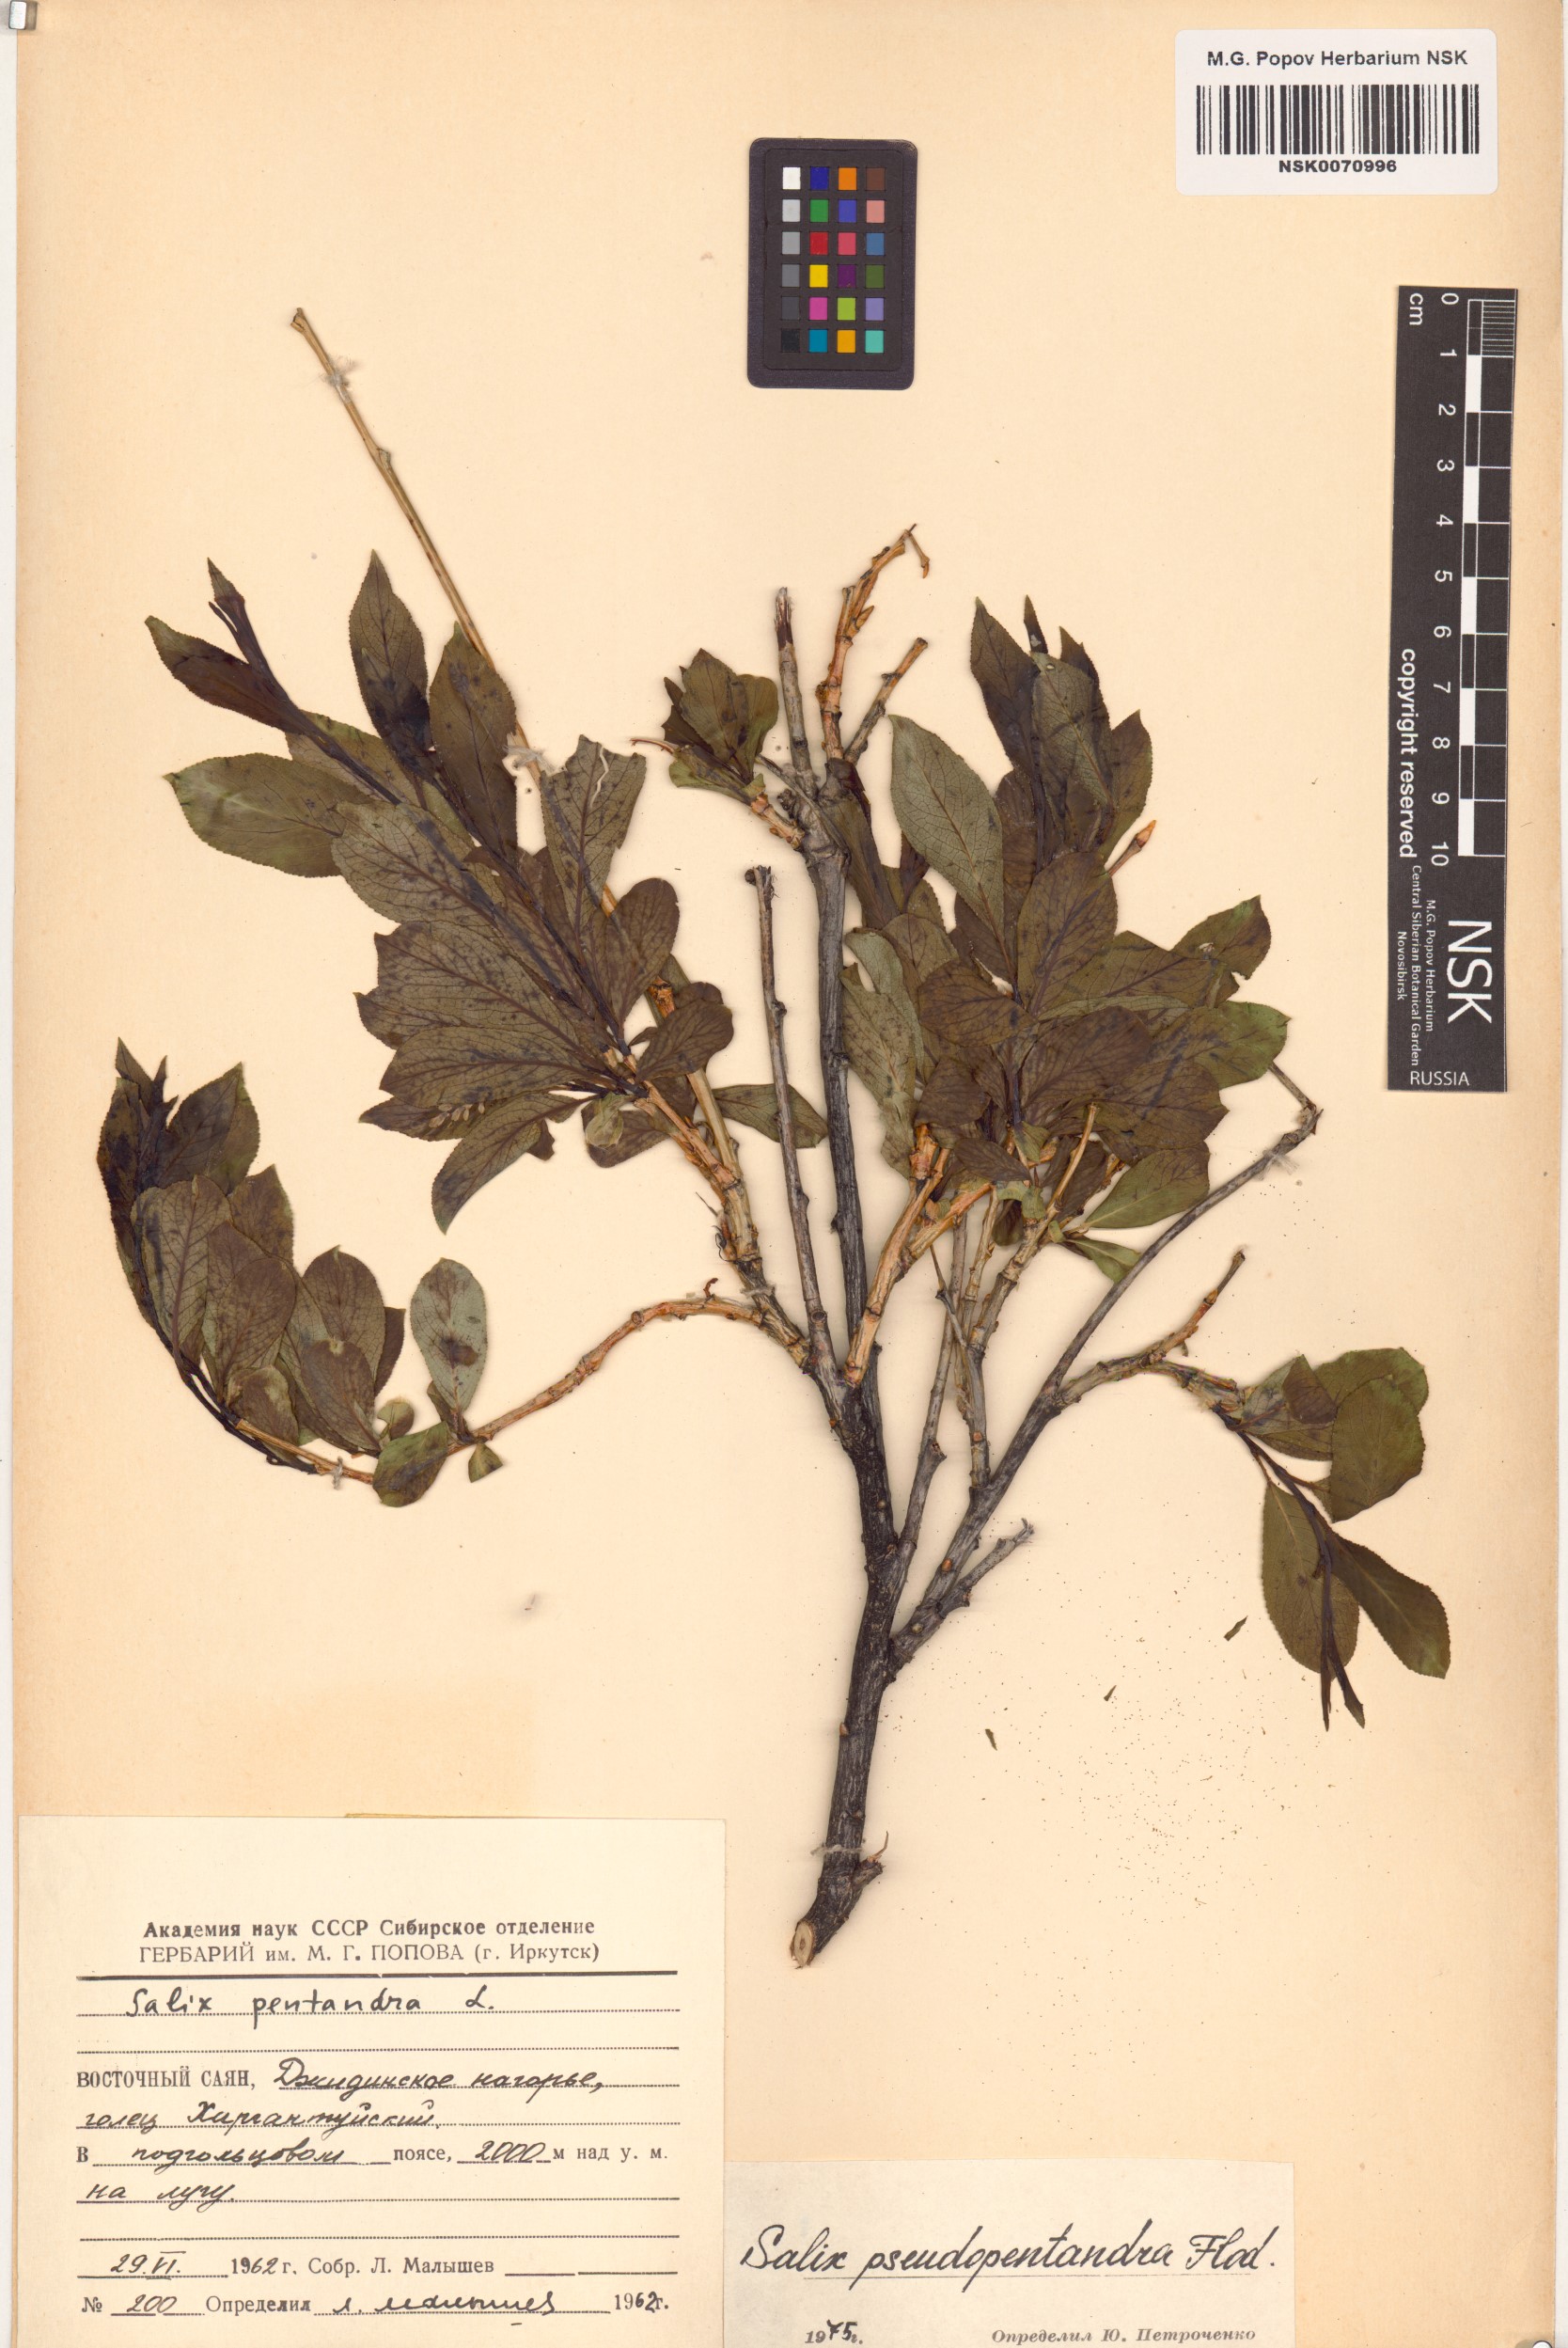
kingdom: Plantae
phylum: Tracheophyta
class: Magnoliopsida
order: Malpighiales
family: Salicaceae
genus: Salix
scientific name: Salix pseudopentandra
